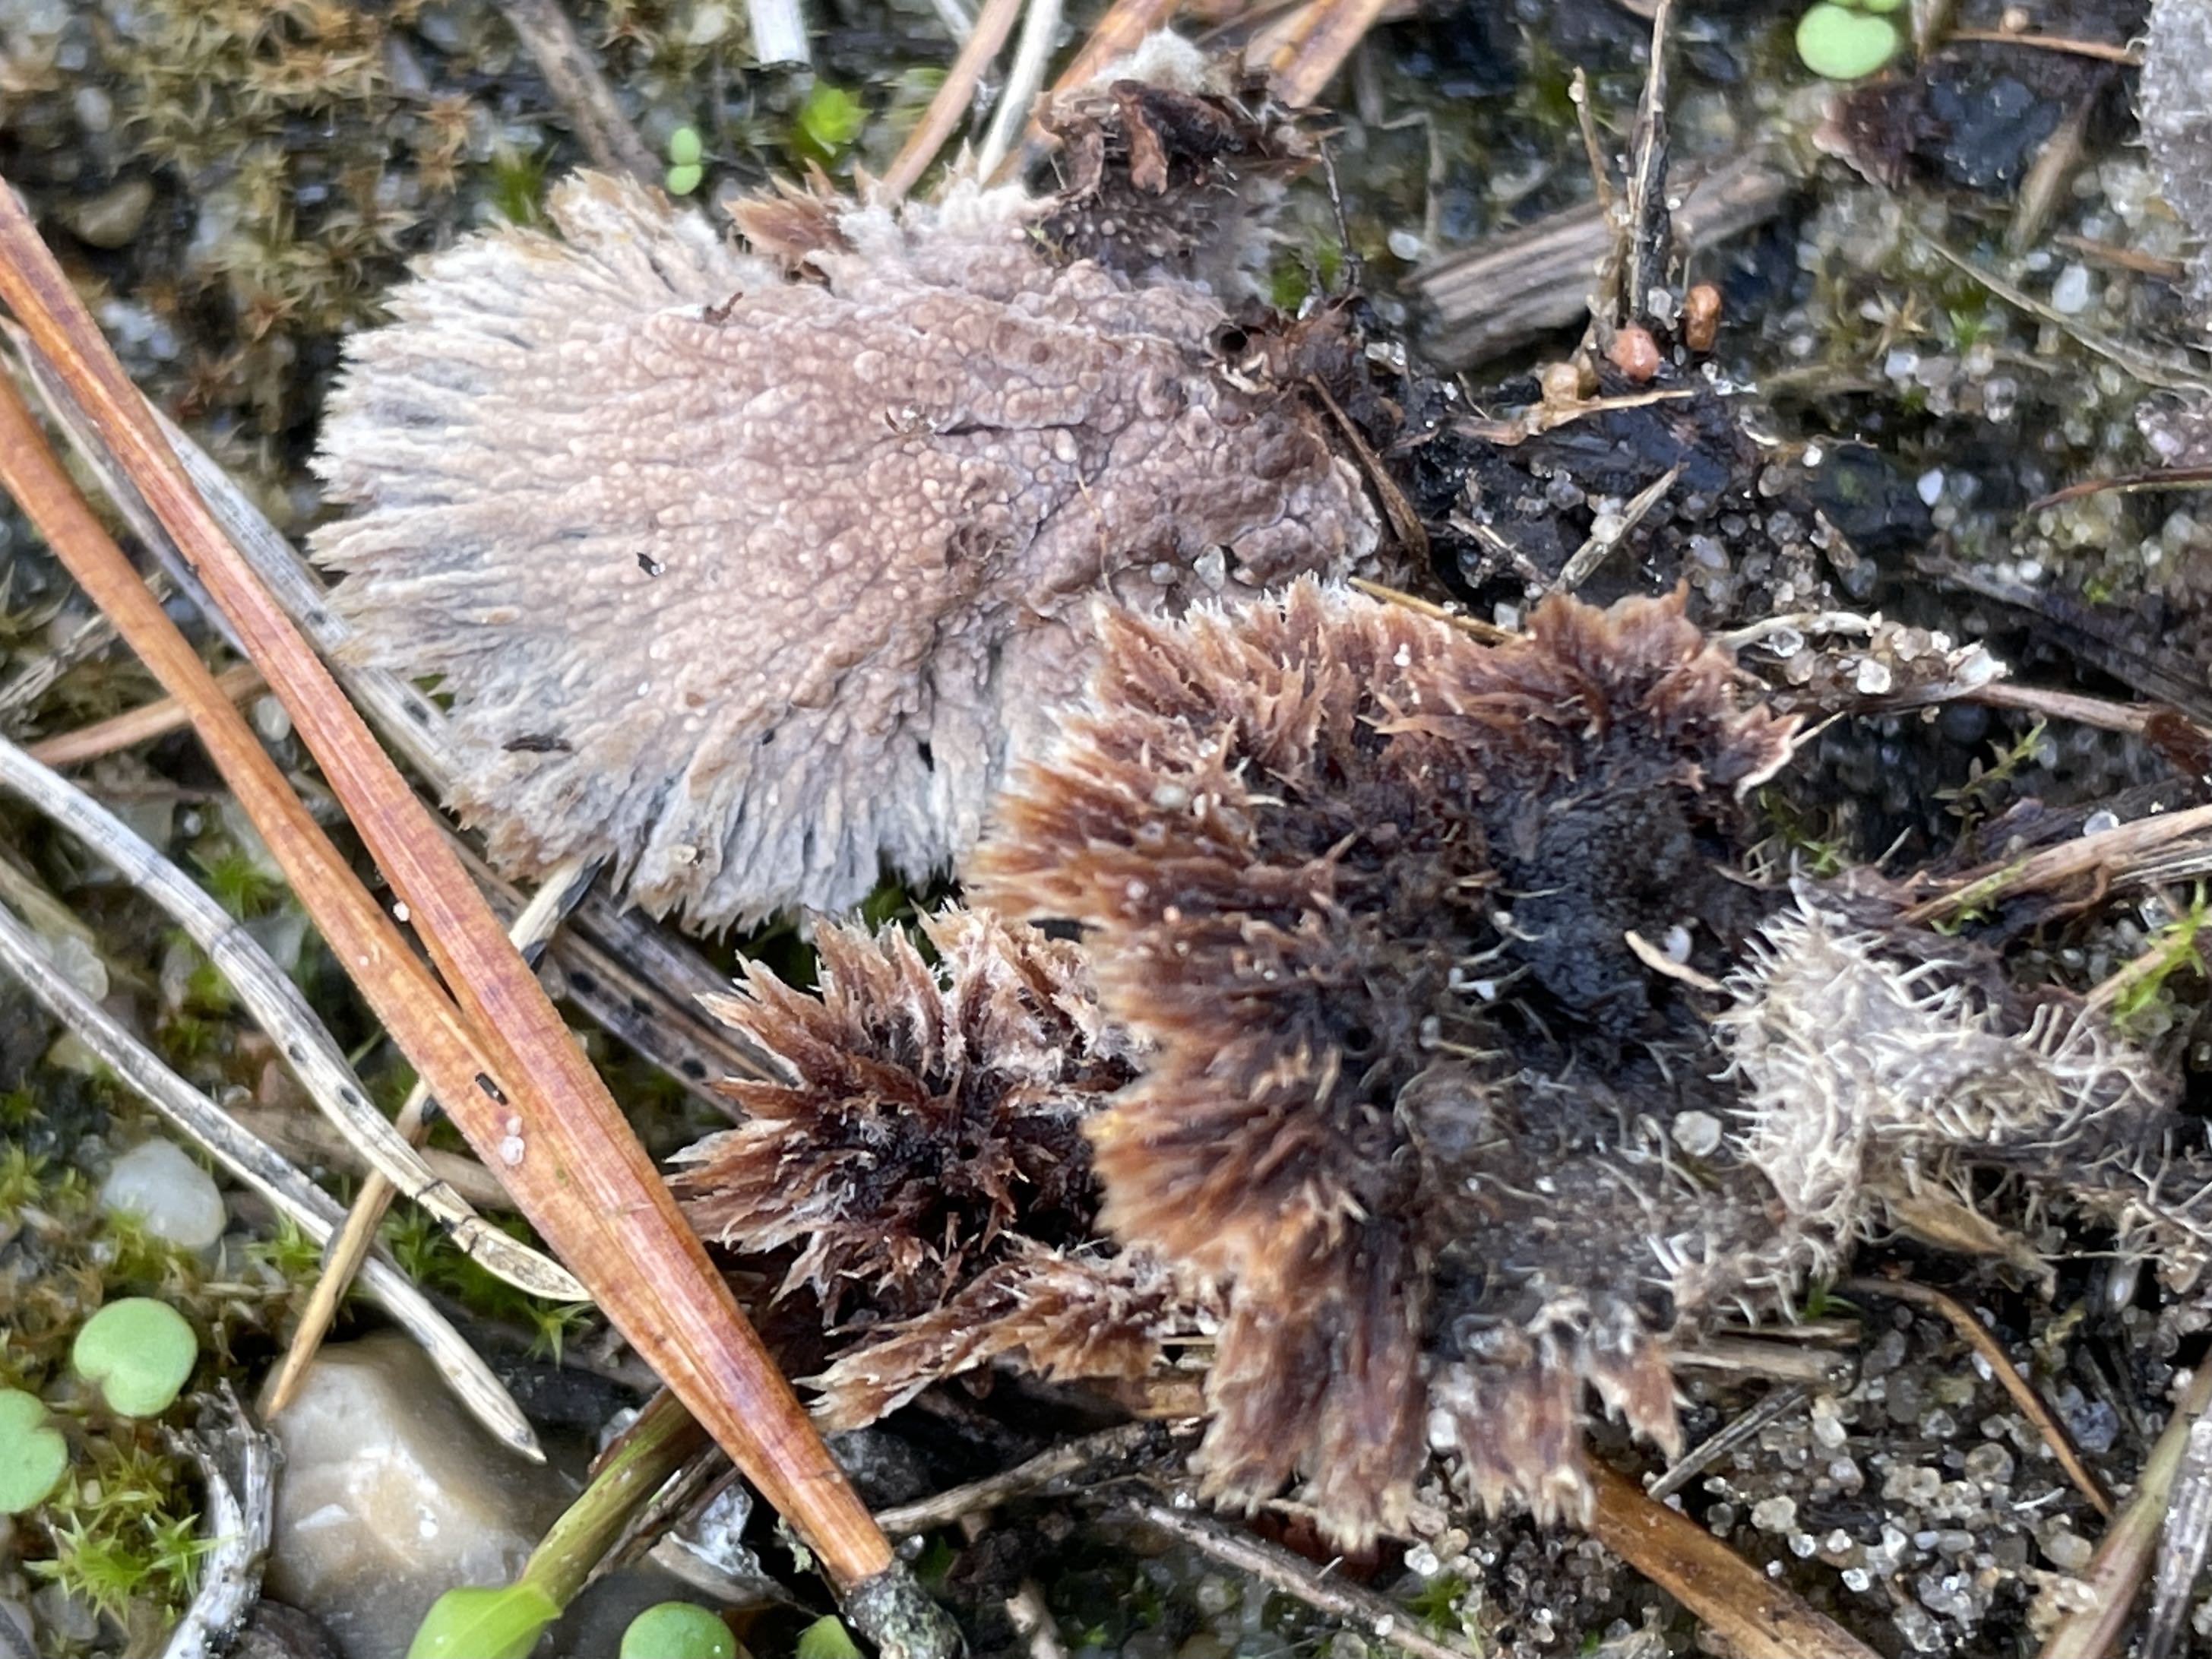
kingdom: Fungi
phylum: Basidiomycota
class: Agaricomycetes
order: Thelephorales
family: Thelephoraceae
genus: Thelephora
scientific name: Thelephora terrestris
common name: fliget frynsesvamp
